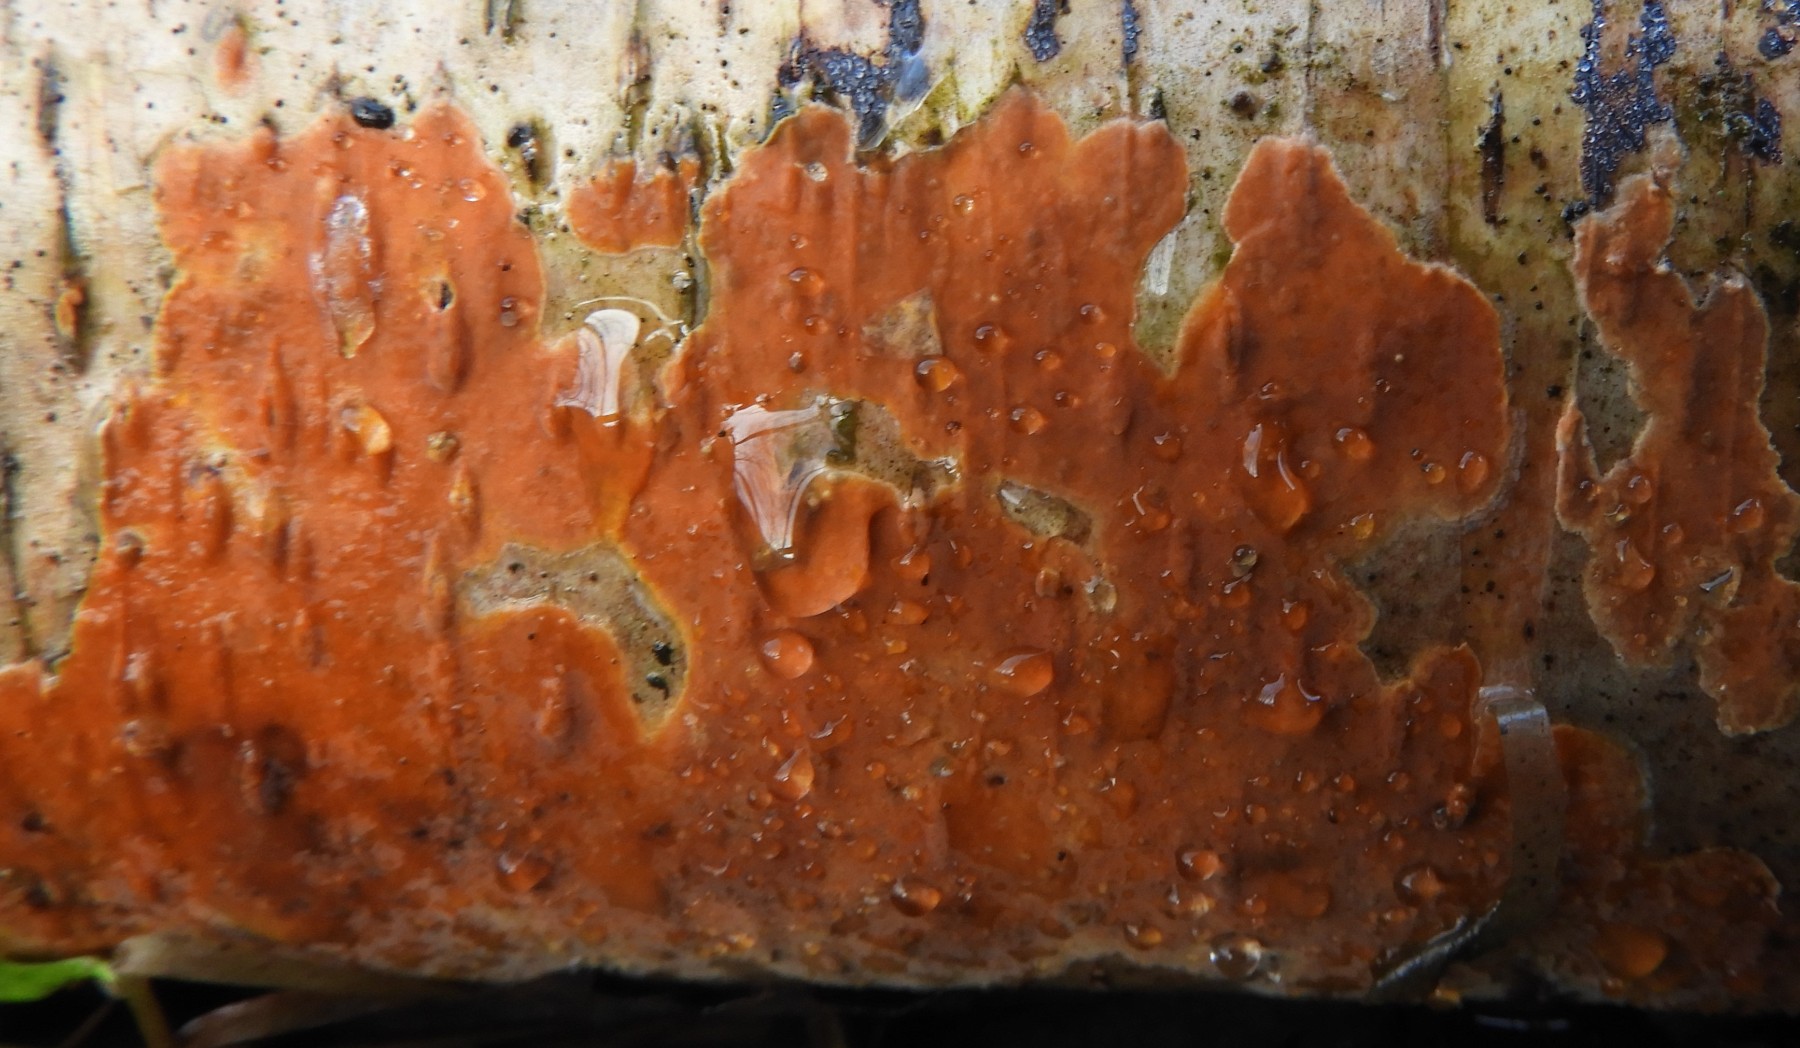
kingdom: Fungi
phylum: Basidiomycota
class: Agaricomycetes
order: Russulales
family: Peniophoraceae
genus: Peniophora
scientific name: Peniophora incarnata
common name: laksefarvet voksskind
